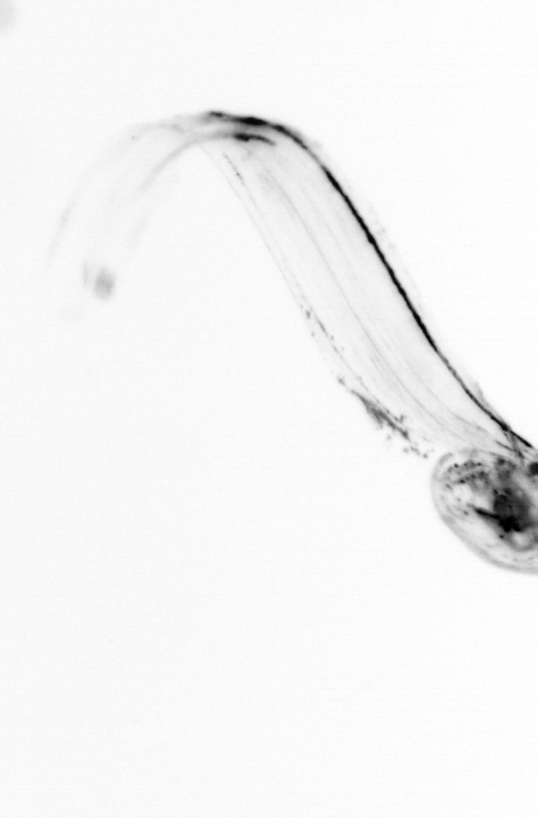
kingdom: Animalia
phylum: Chaetognatha
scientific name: Chaetognatha
